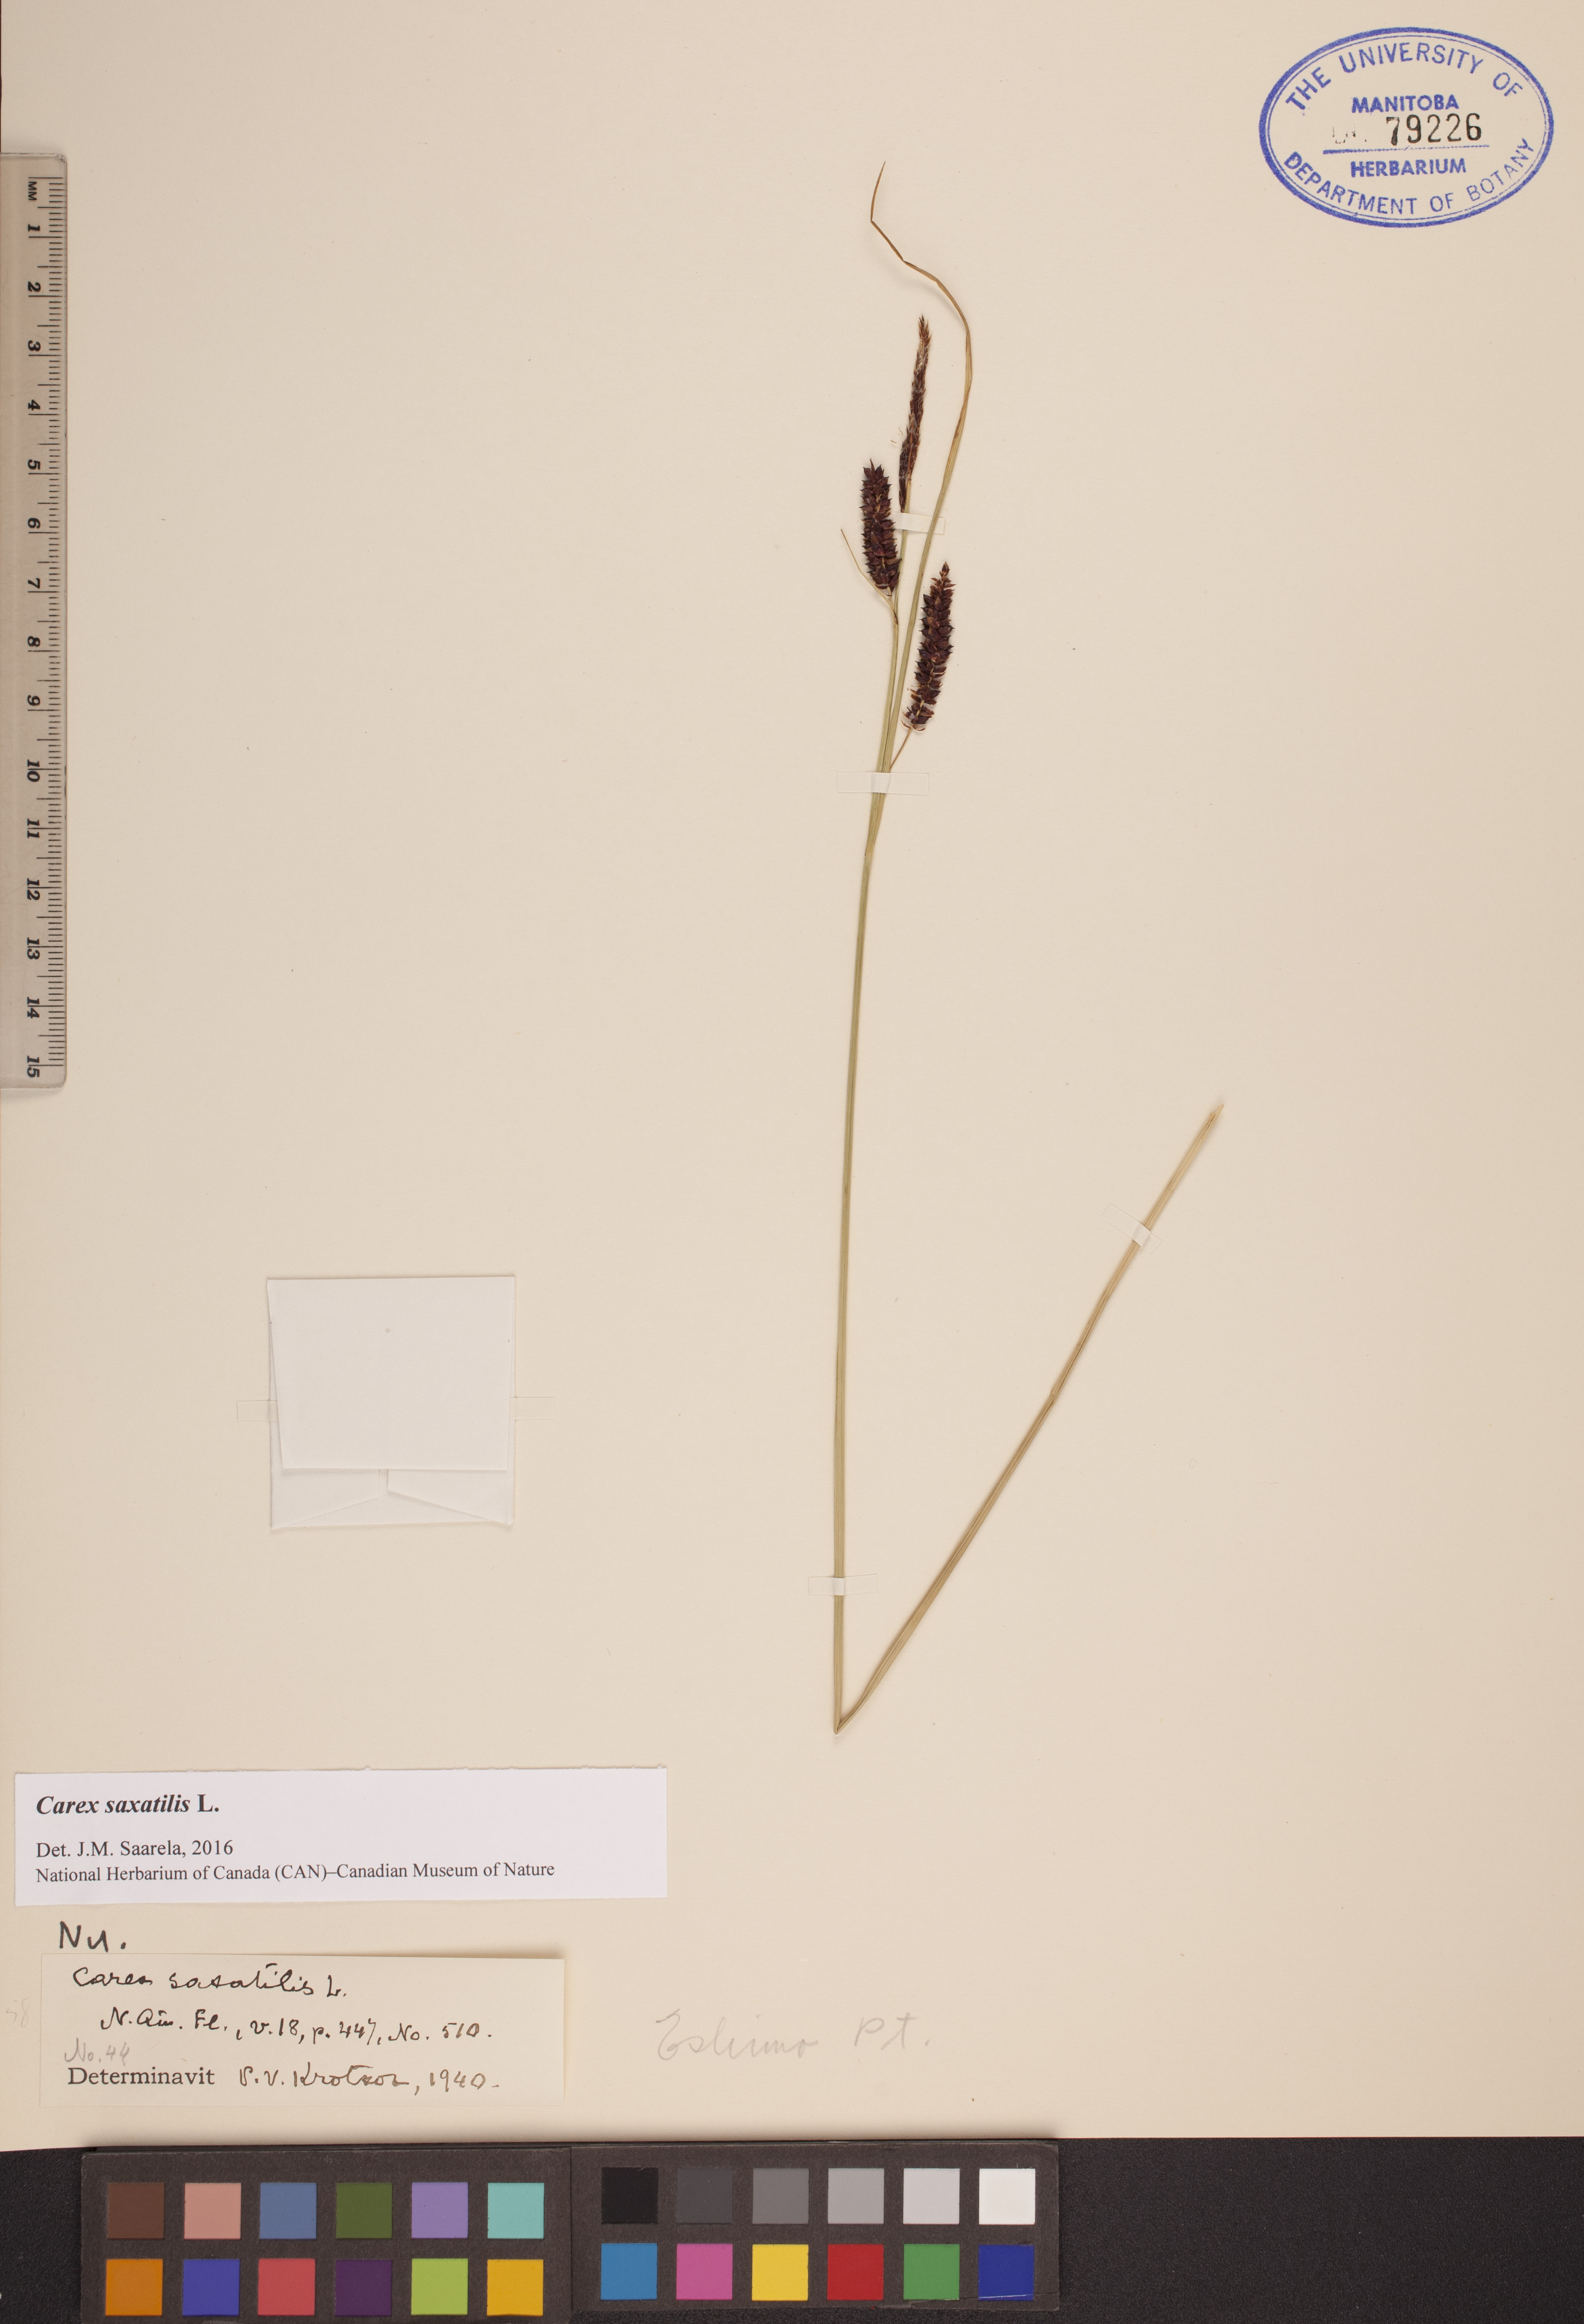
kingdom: Plantae
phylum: Tracheophyta
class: Liliopsida
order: Poales
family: Cyperaceae
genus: Carex
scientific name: Carex saxatilis
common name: Russet sedge
